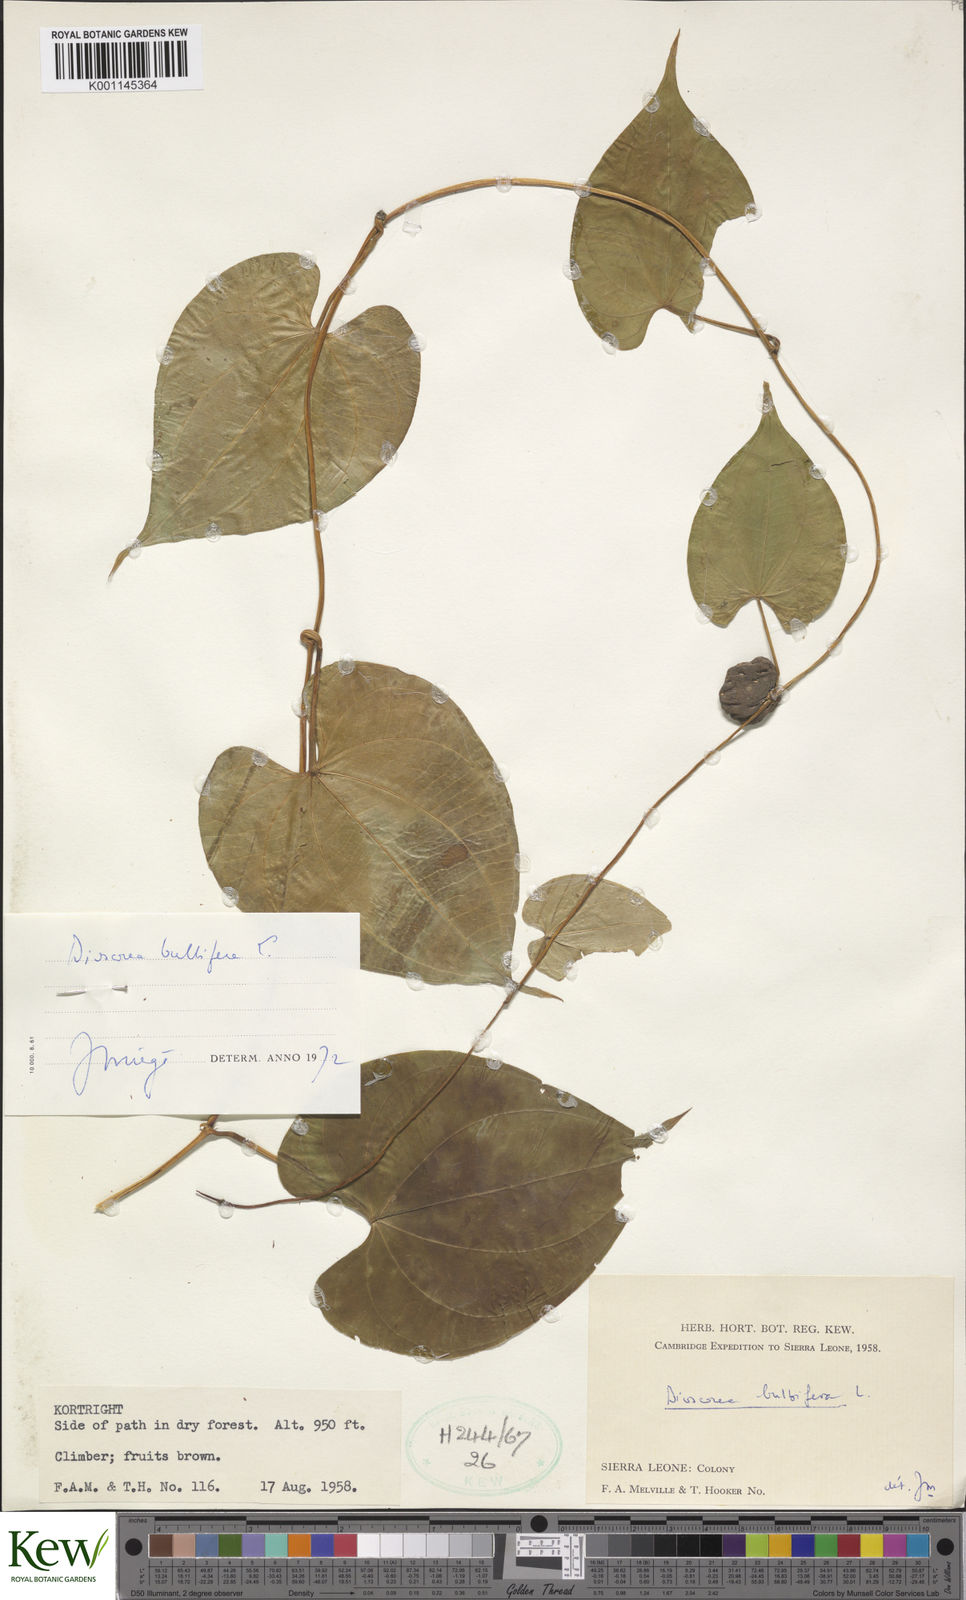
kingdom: Plantae
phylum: Tracheophyta
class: Liliopsida
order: Dioscoreales
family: Dioscoreaceae
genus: Dioscorea
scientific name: Dioscorea bulbifera
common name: Air yam
